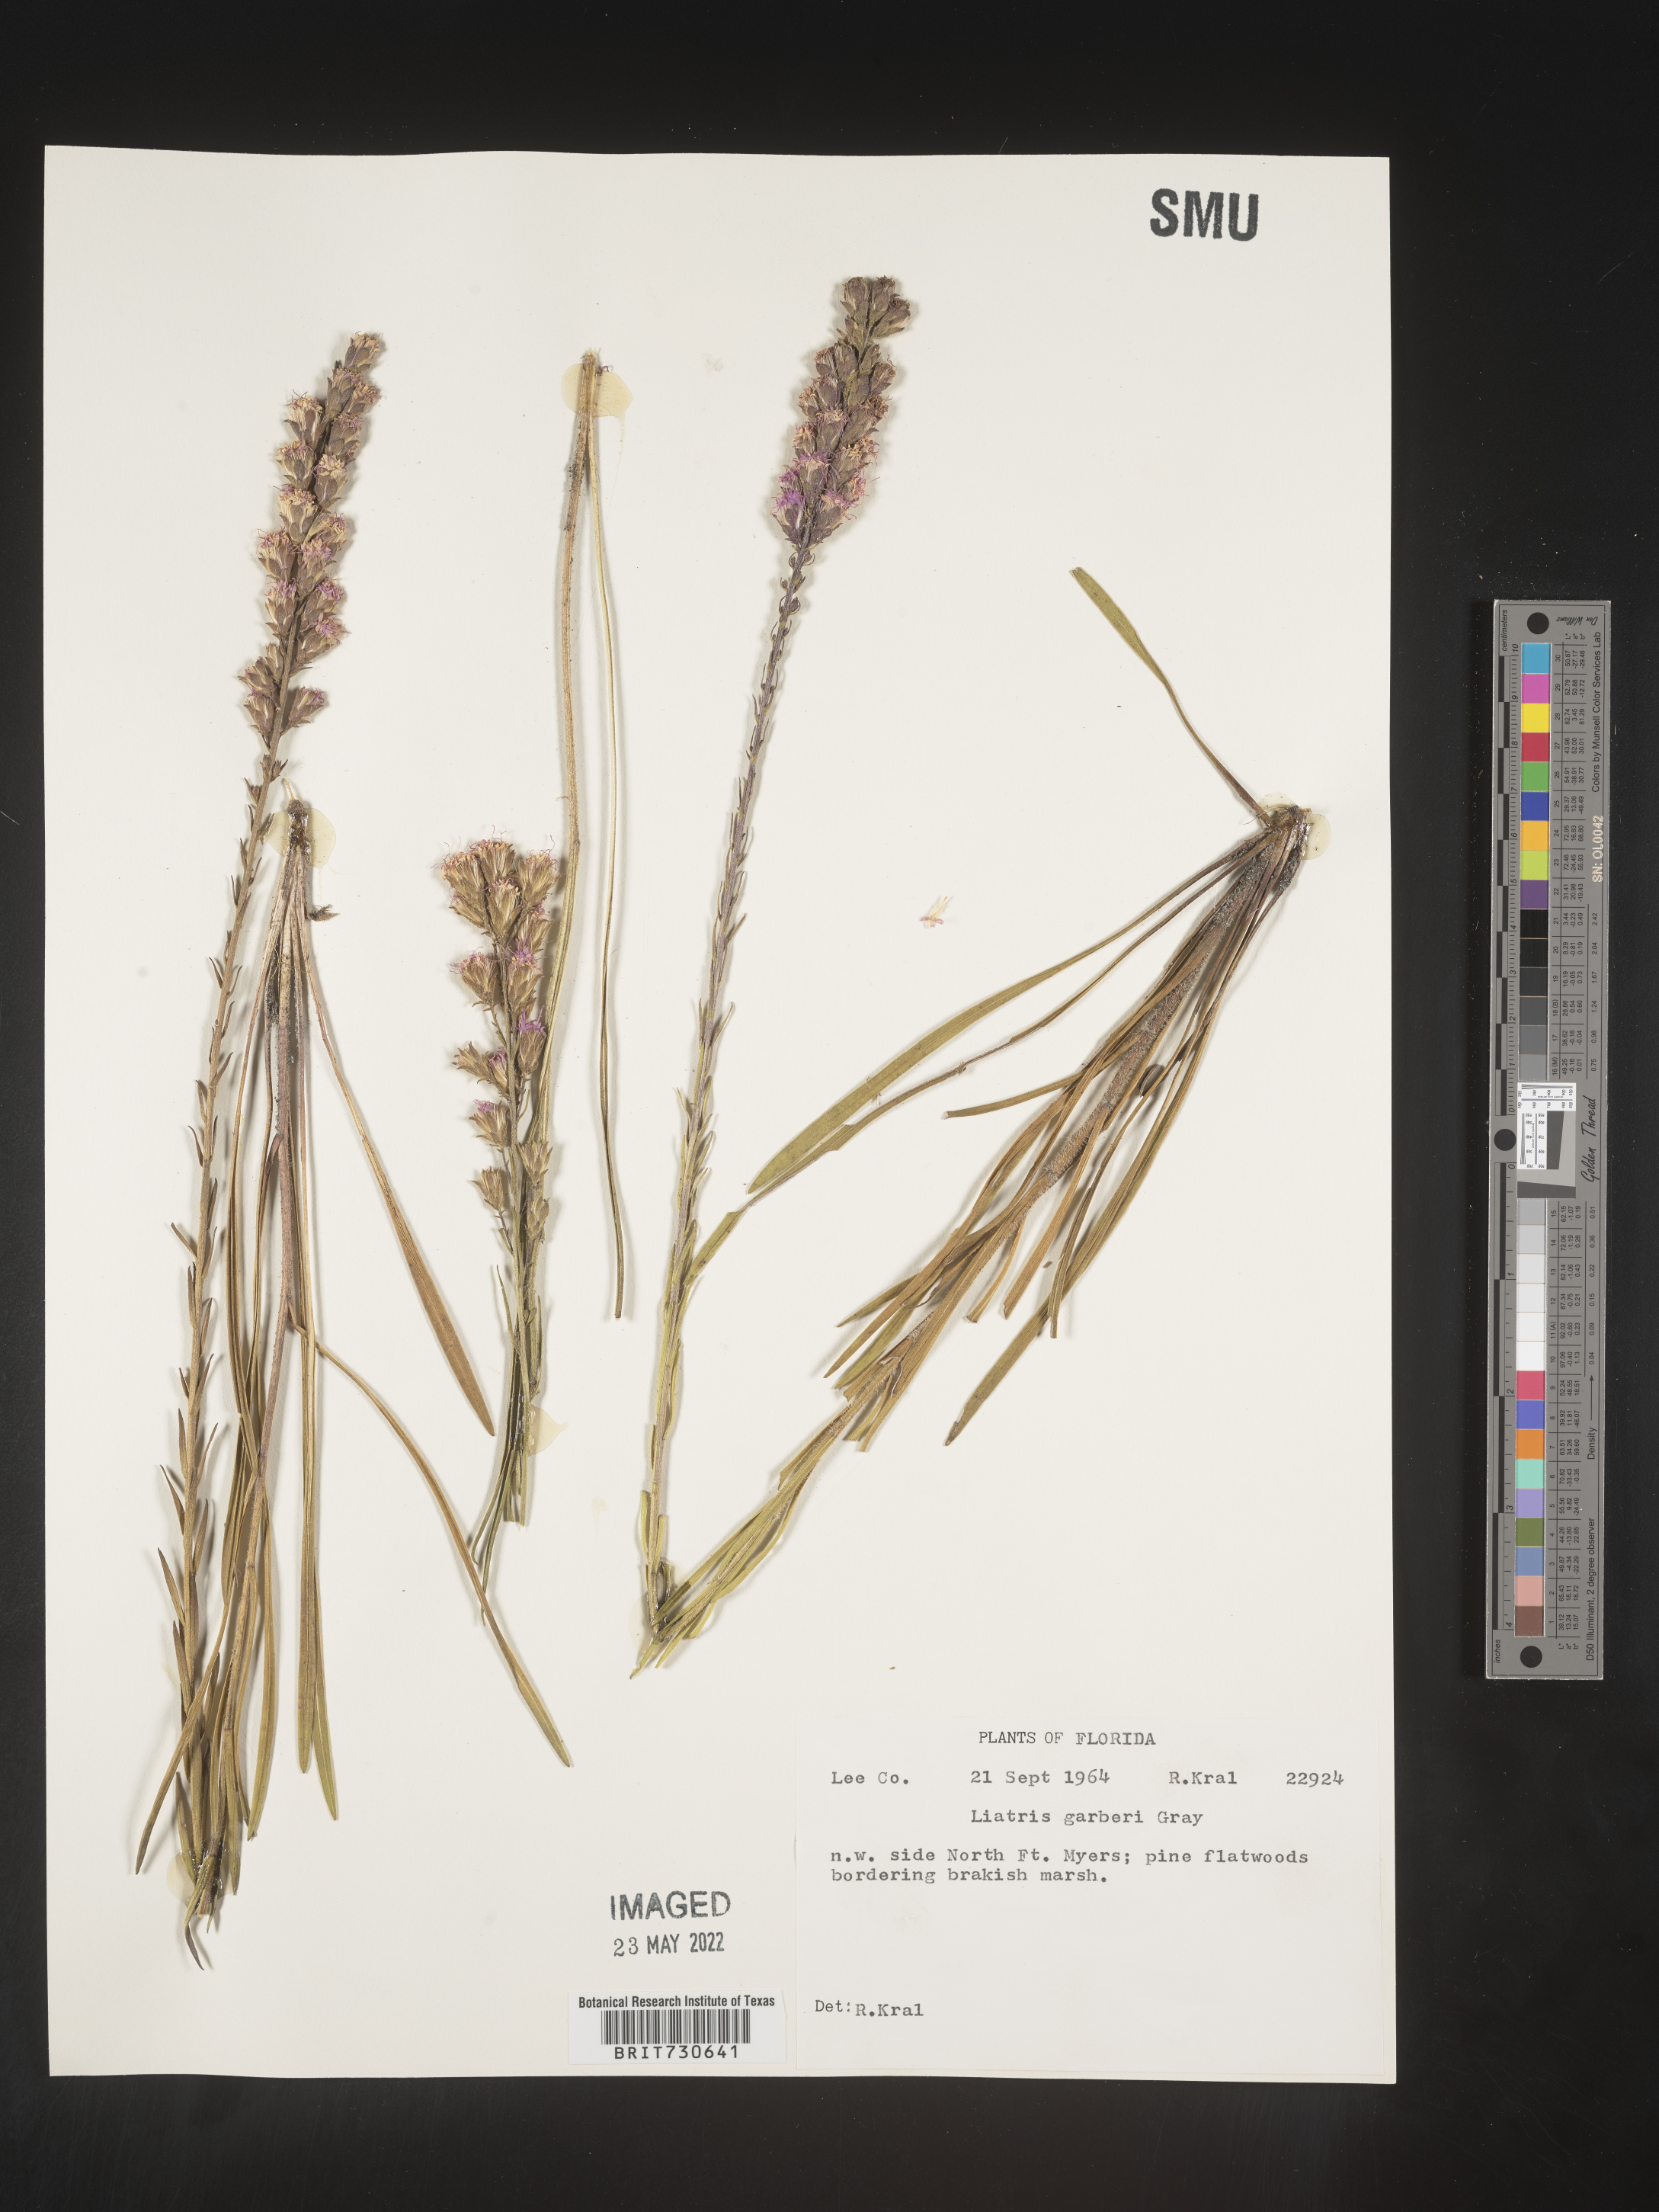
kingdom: Plantae
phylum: Tracheophyta
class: Magnoliopsida
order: Asterales
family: Asteraceae
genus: Liatris
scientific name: Liatris garberi
